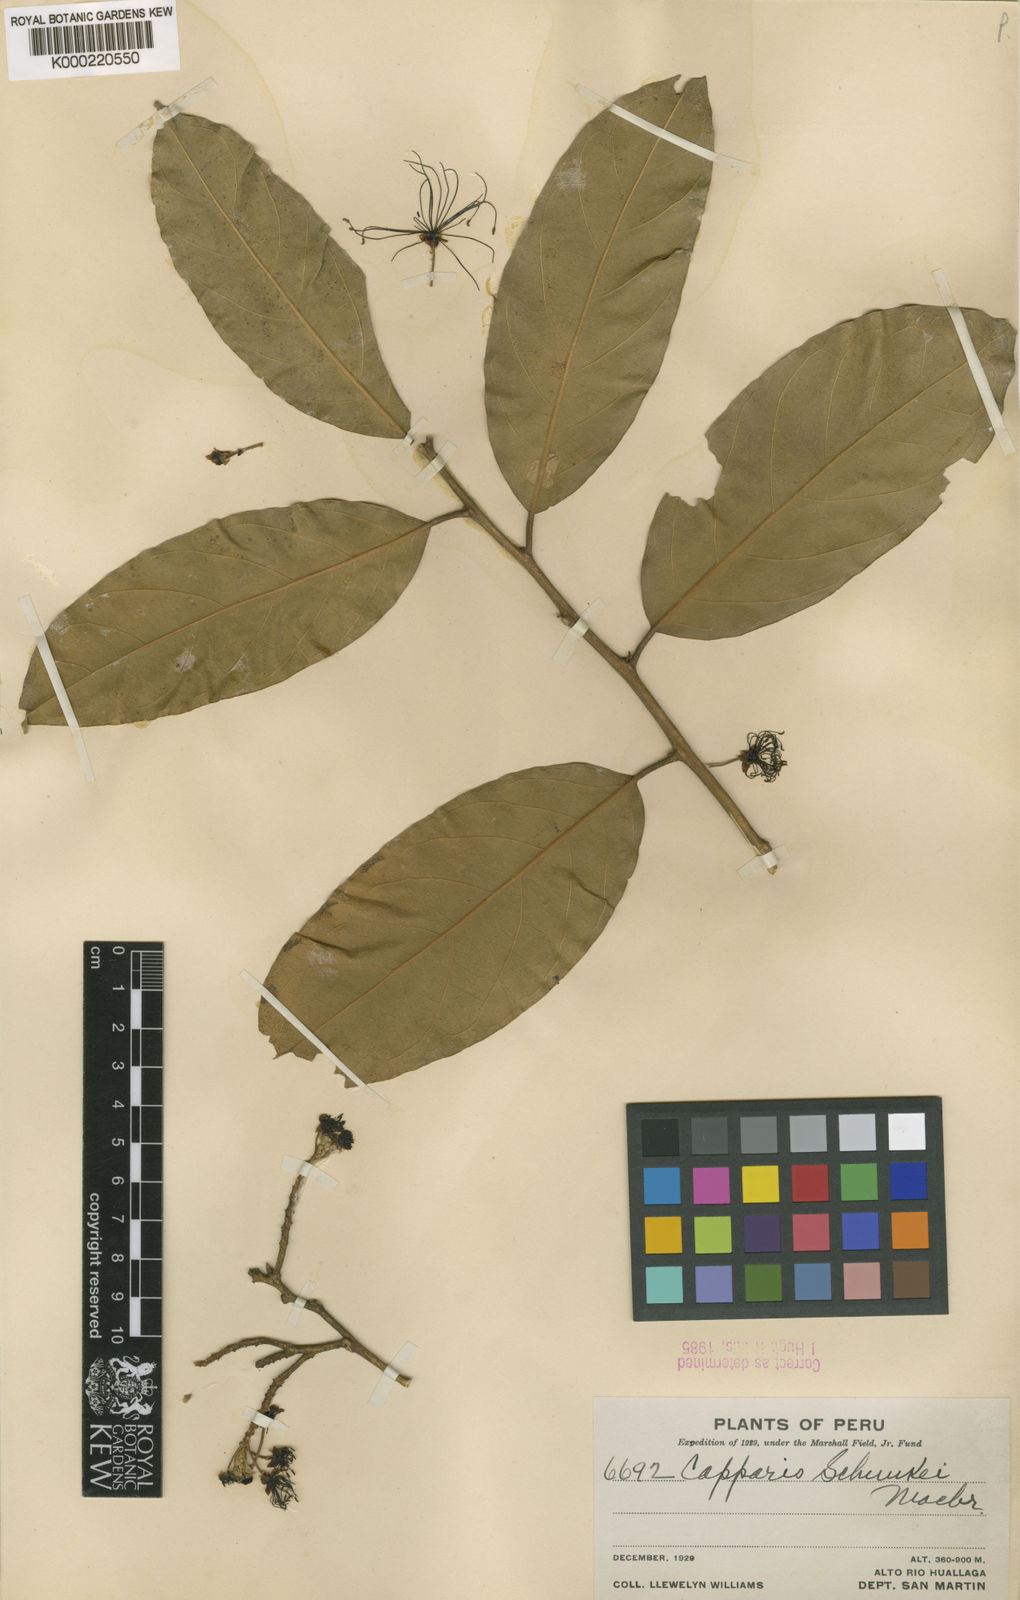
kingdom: Plantae
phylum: Tracheophyta
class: Magnoliopsida
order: Brassicales
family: Capparaceae
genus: Preslianthus
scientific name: Preslianthus detonsus
